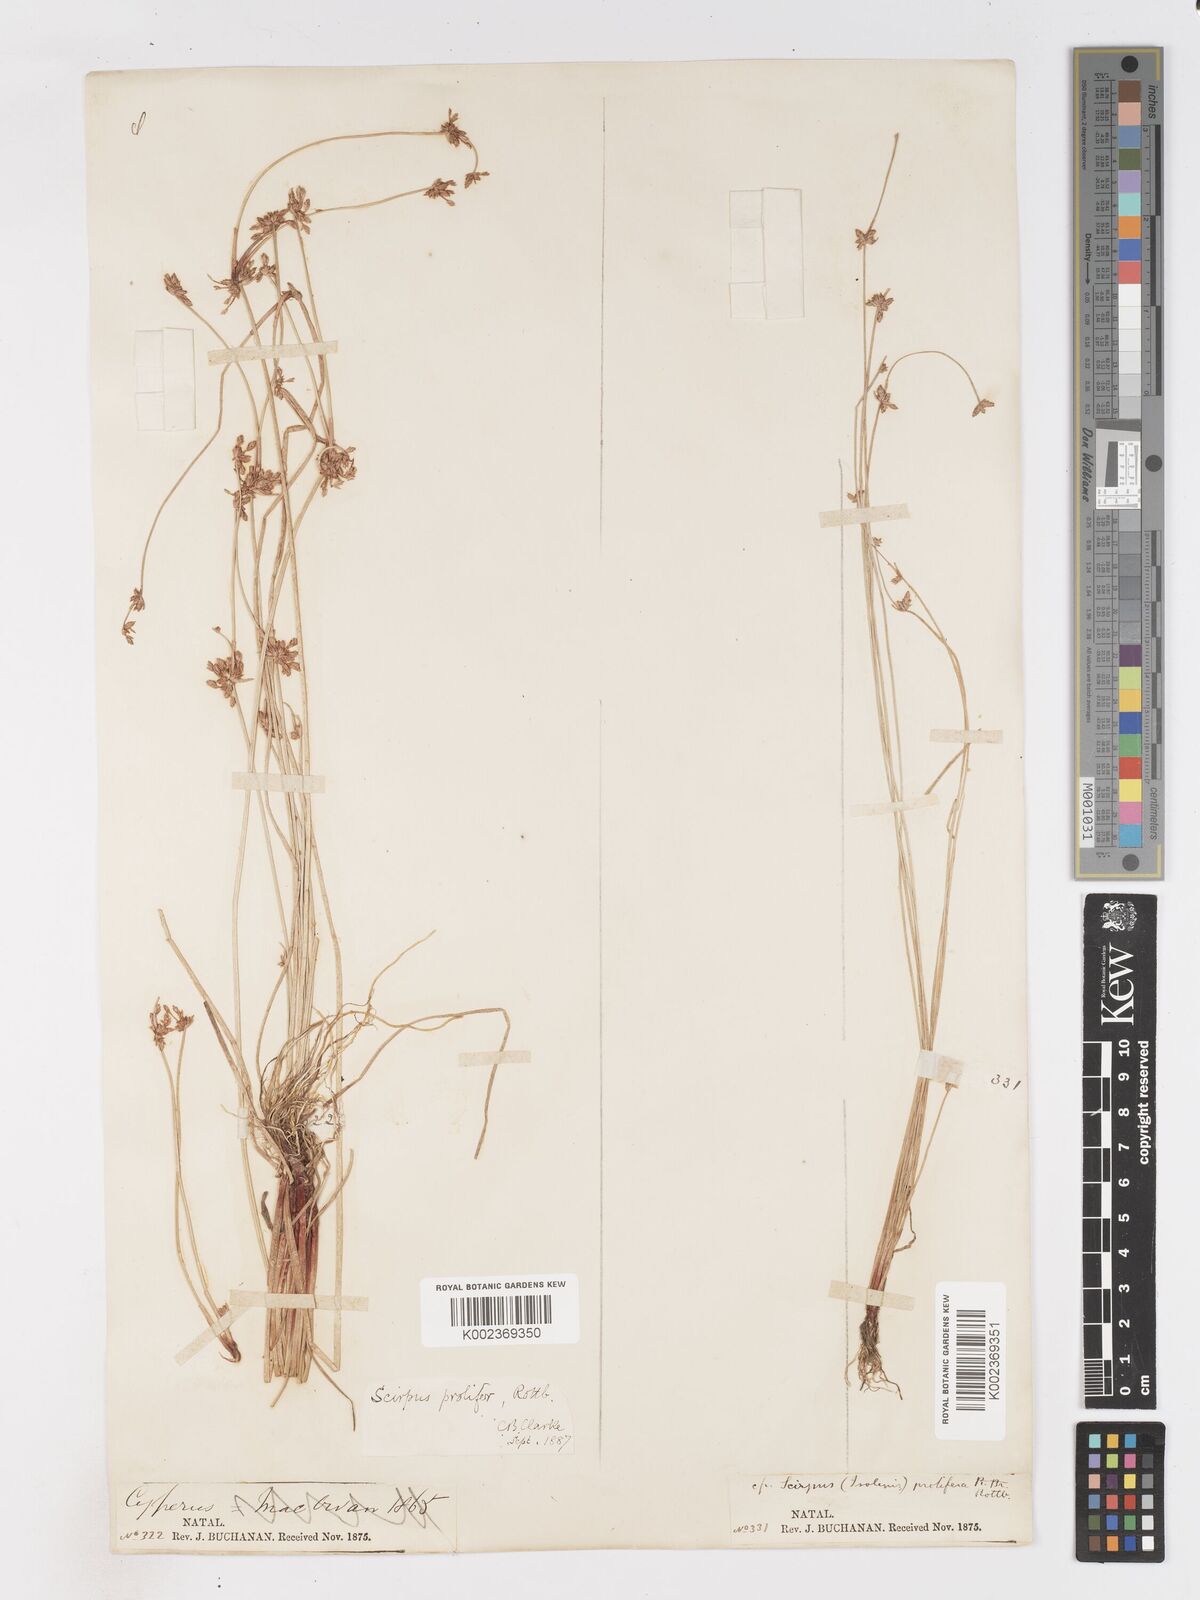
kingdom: Plantae
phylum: Tracheophyta
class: Liliopsida
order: Poales
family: Cyperaceae
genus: Isolepis
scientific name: Isolepis prolifera
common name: Proliferating bulrush
